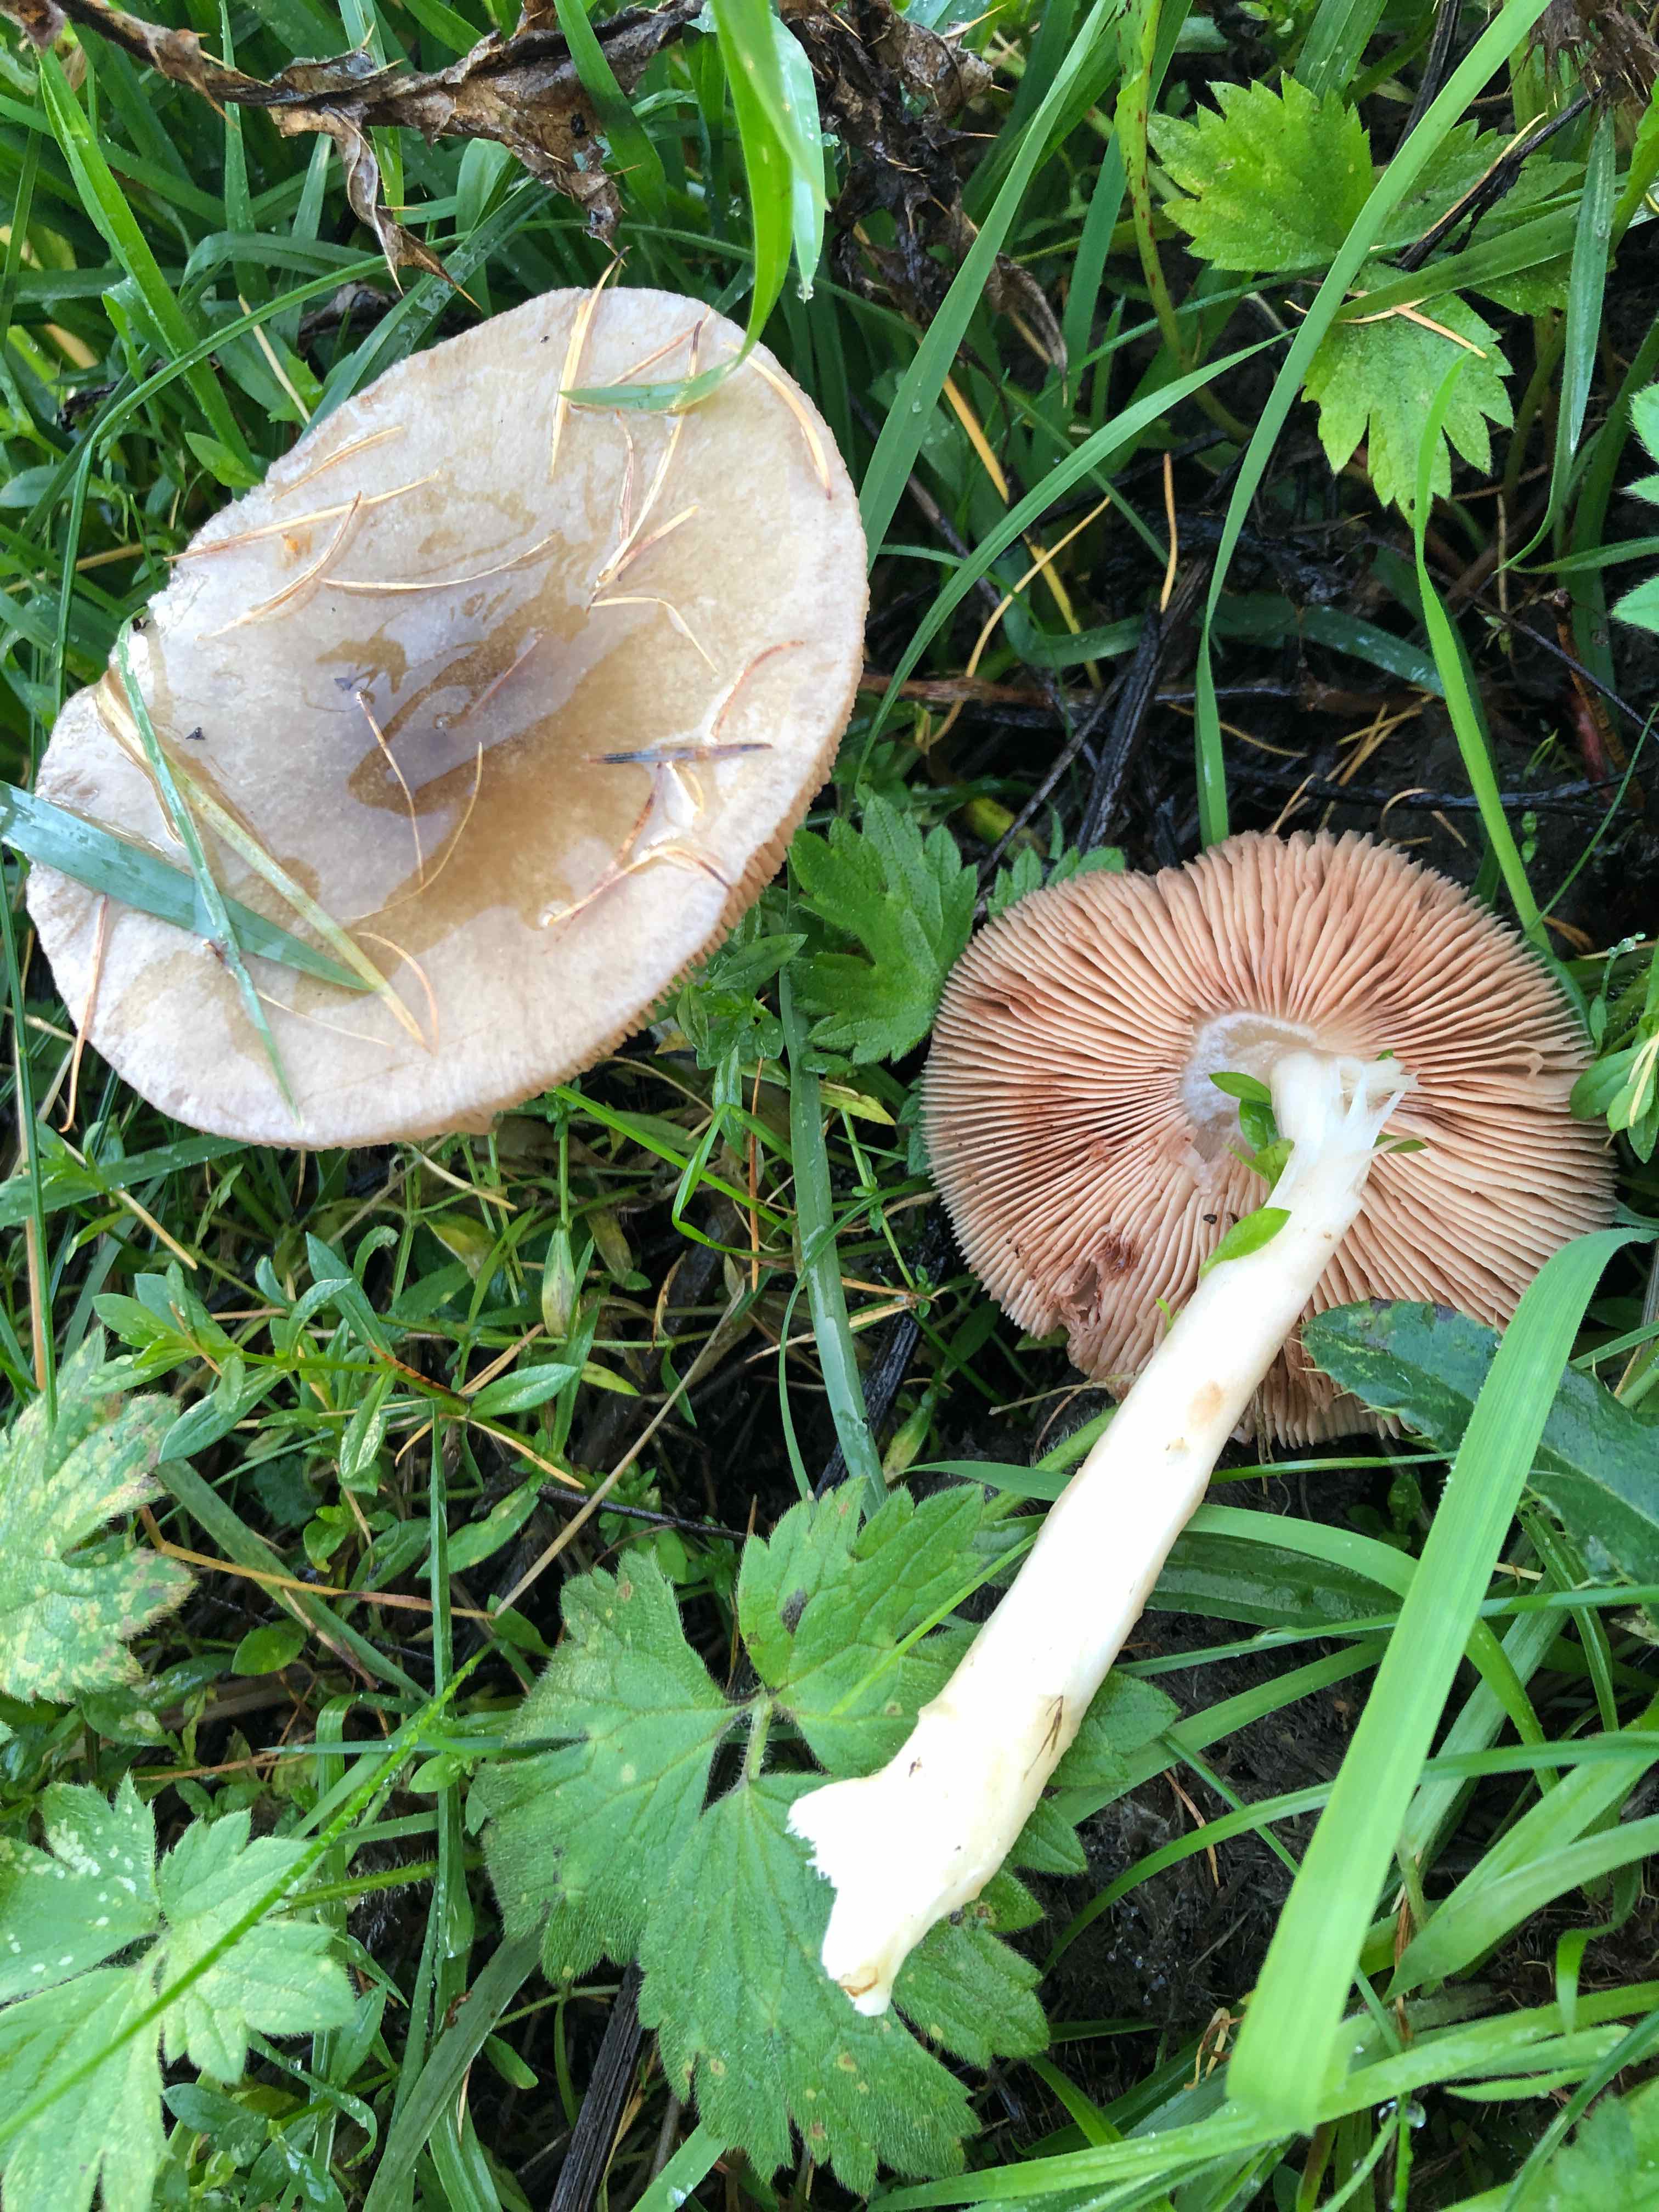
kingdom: Fungi
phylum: Basidiomycota
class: Agaricomycetes
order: Agaricales
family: Pluteaceae
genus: Volvopluteus
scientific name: Volvopluteus gloiocephalus
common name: høj posesvamp
